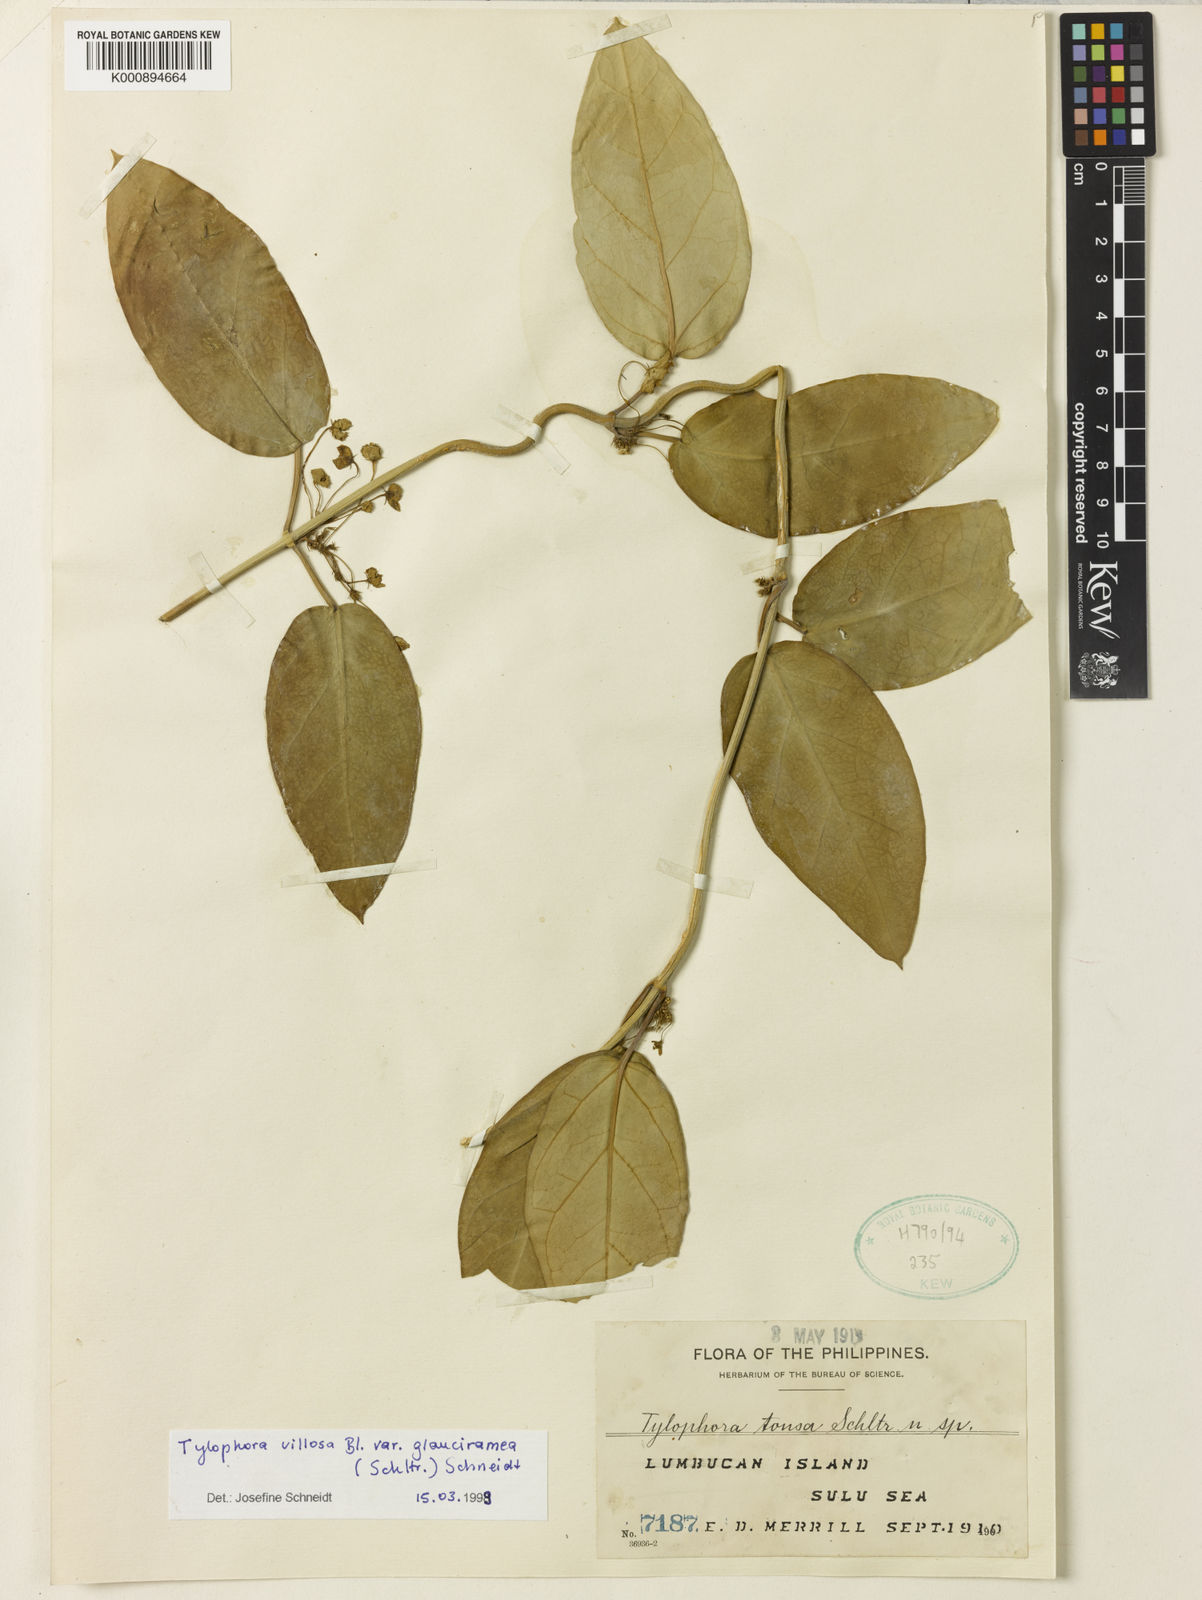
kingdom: Plantae
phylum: Tracheophyta
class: Magnoliopsida
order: Gentianales
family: Apocynaceae
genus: Vincetoxicum
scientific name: Vincetoxicum glaucirameum
